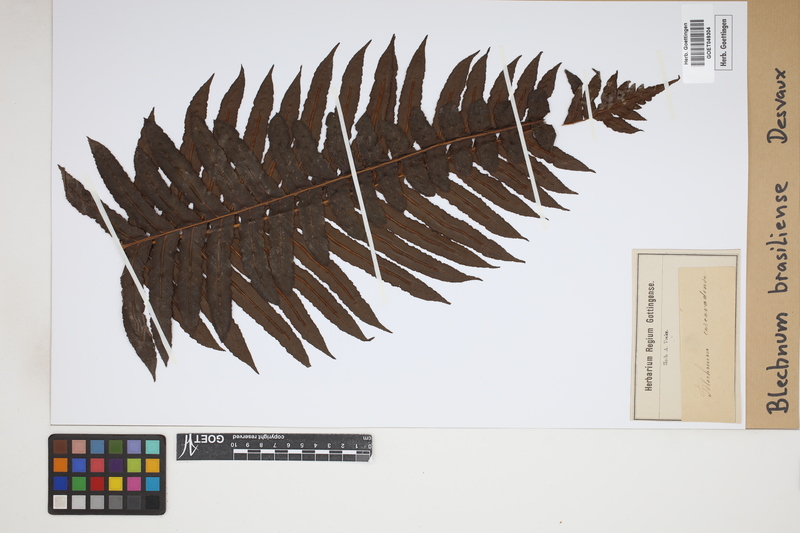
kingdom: Plantae
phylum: Tracheophyta
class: Polypodiopsida
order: Polypodiales
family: Blechnaceae
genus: Neoblechnum
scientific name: Neoblechnum brasiliense
